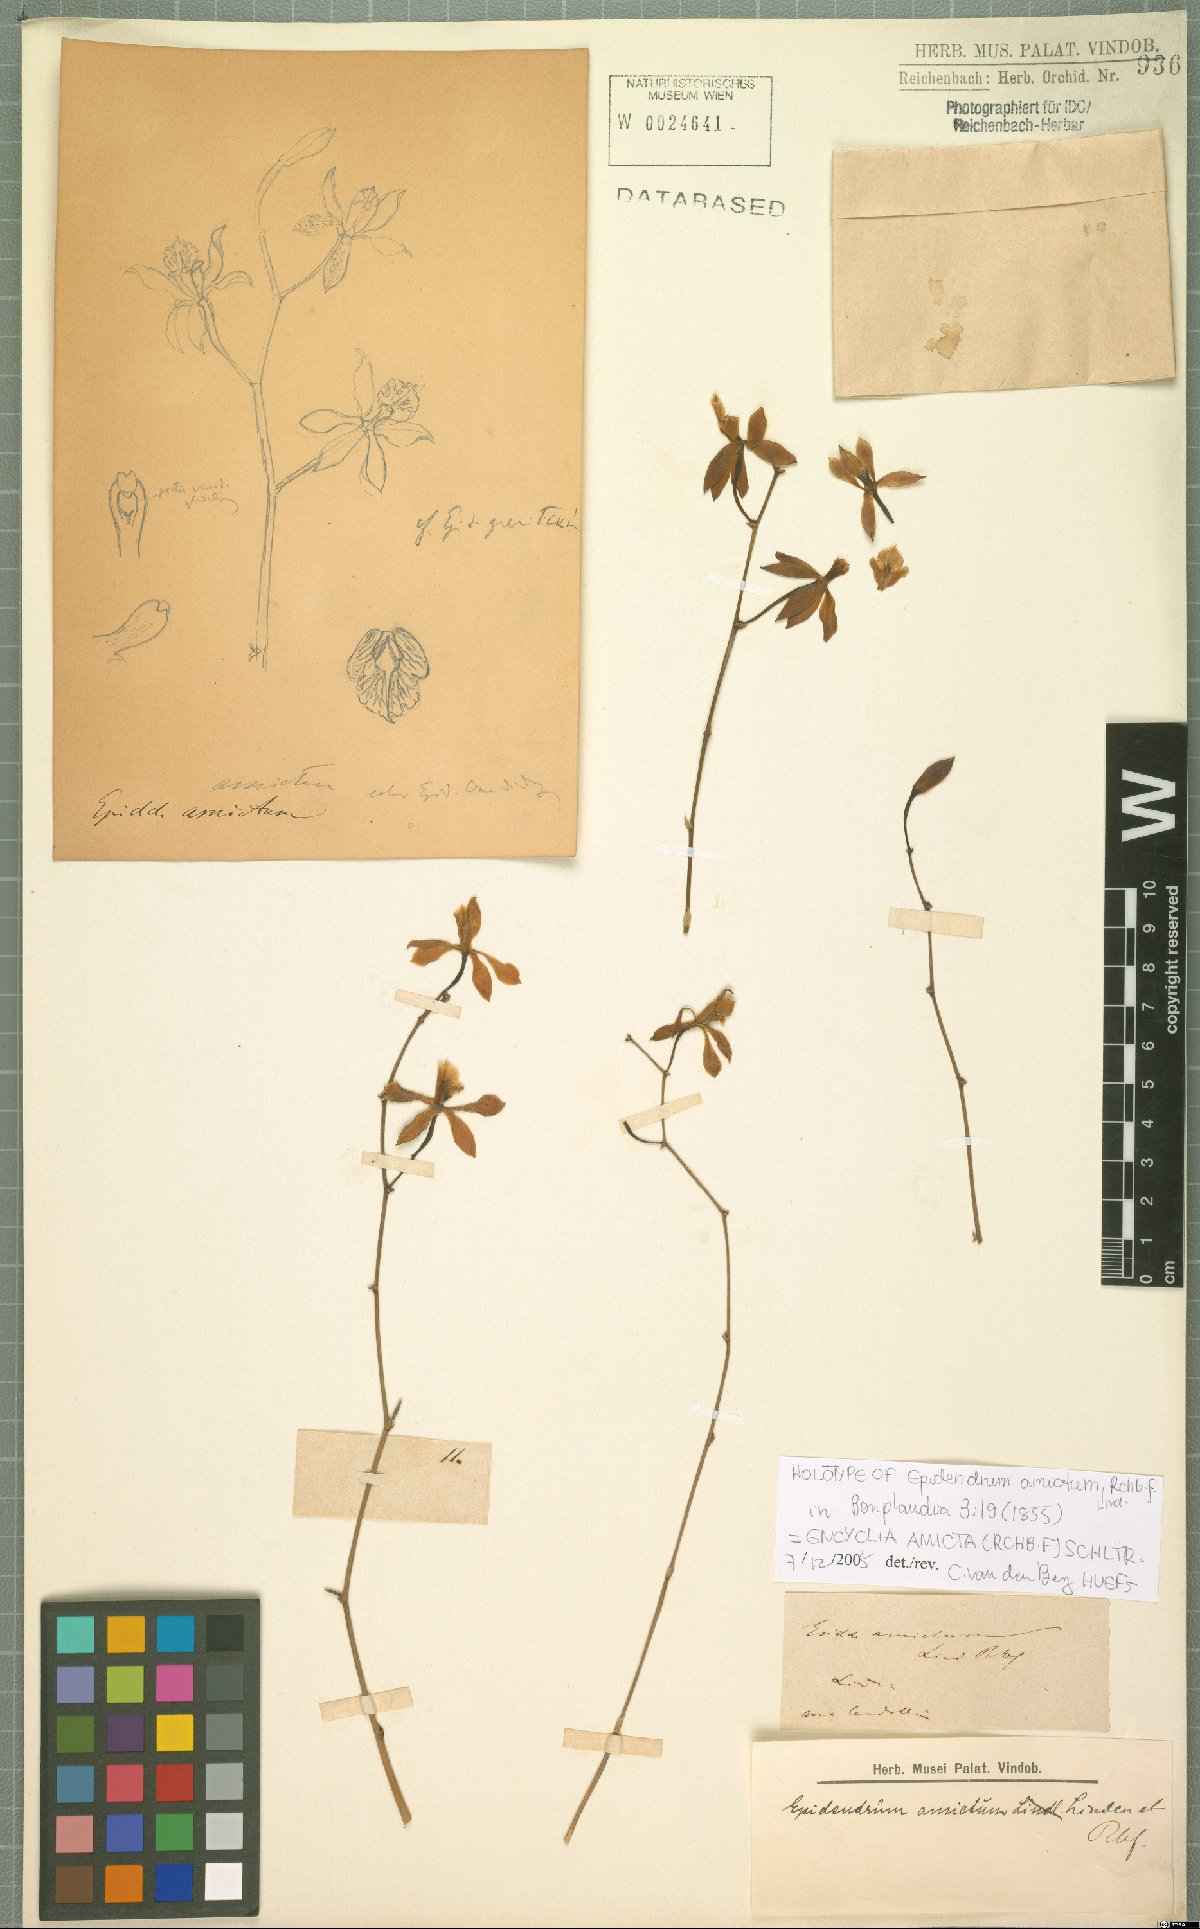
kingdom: Plantae
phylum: Tracheophyta
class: Liliopsida
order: Asparagales
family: Orchidaceae
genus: Epidendrum
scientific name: Epidendrum amictum
